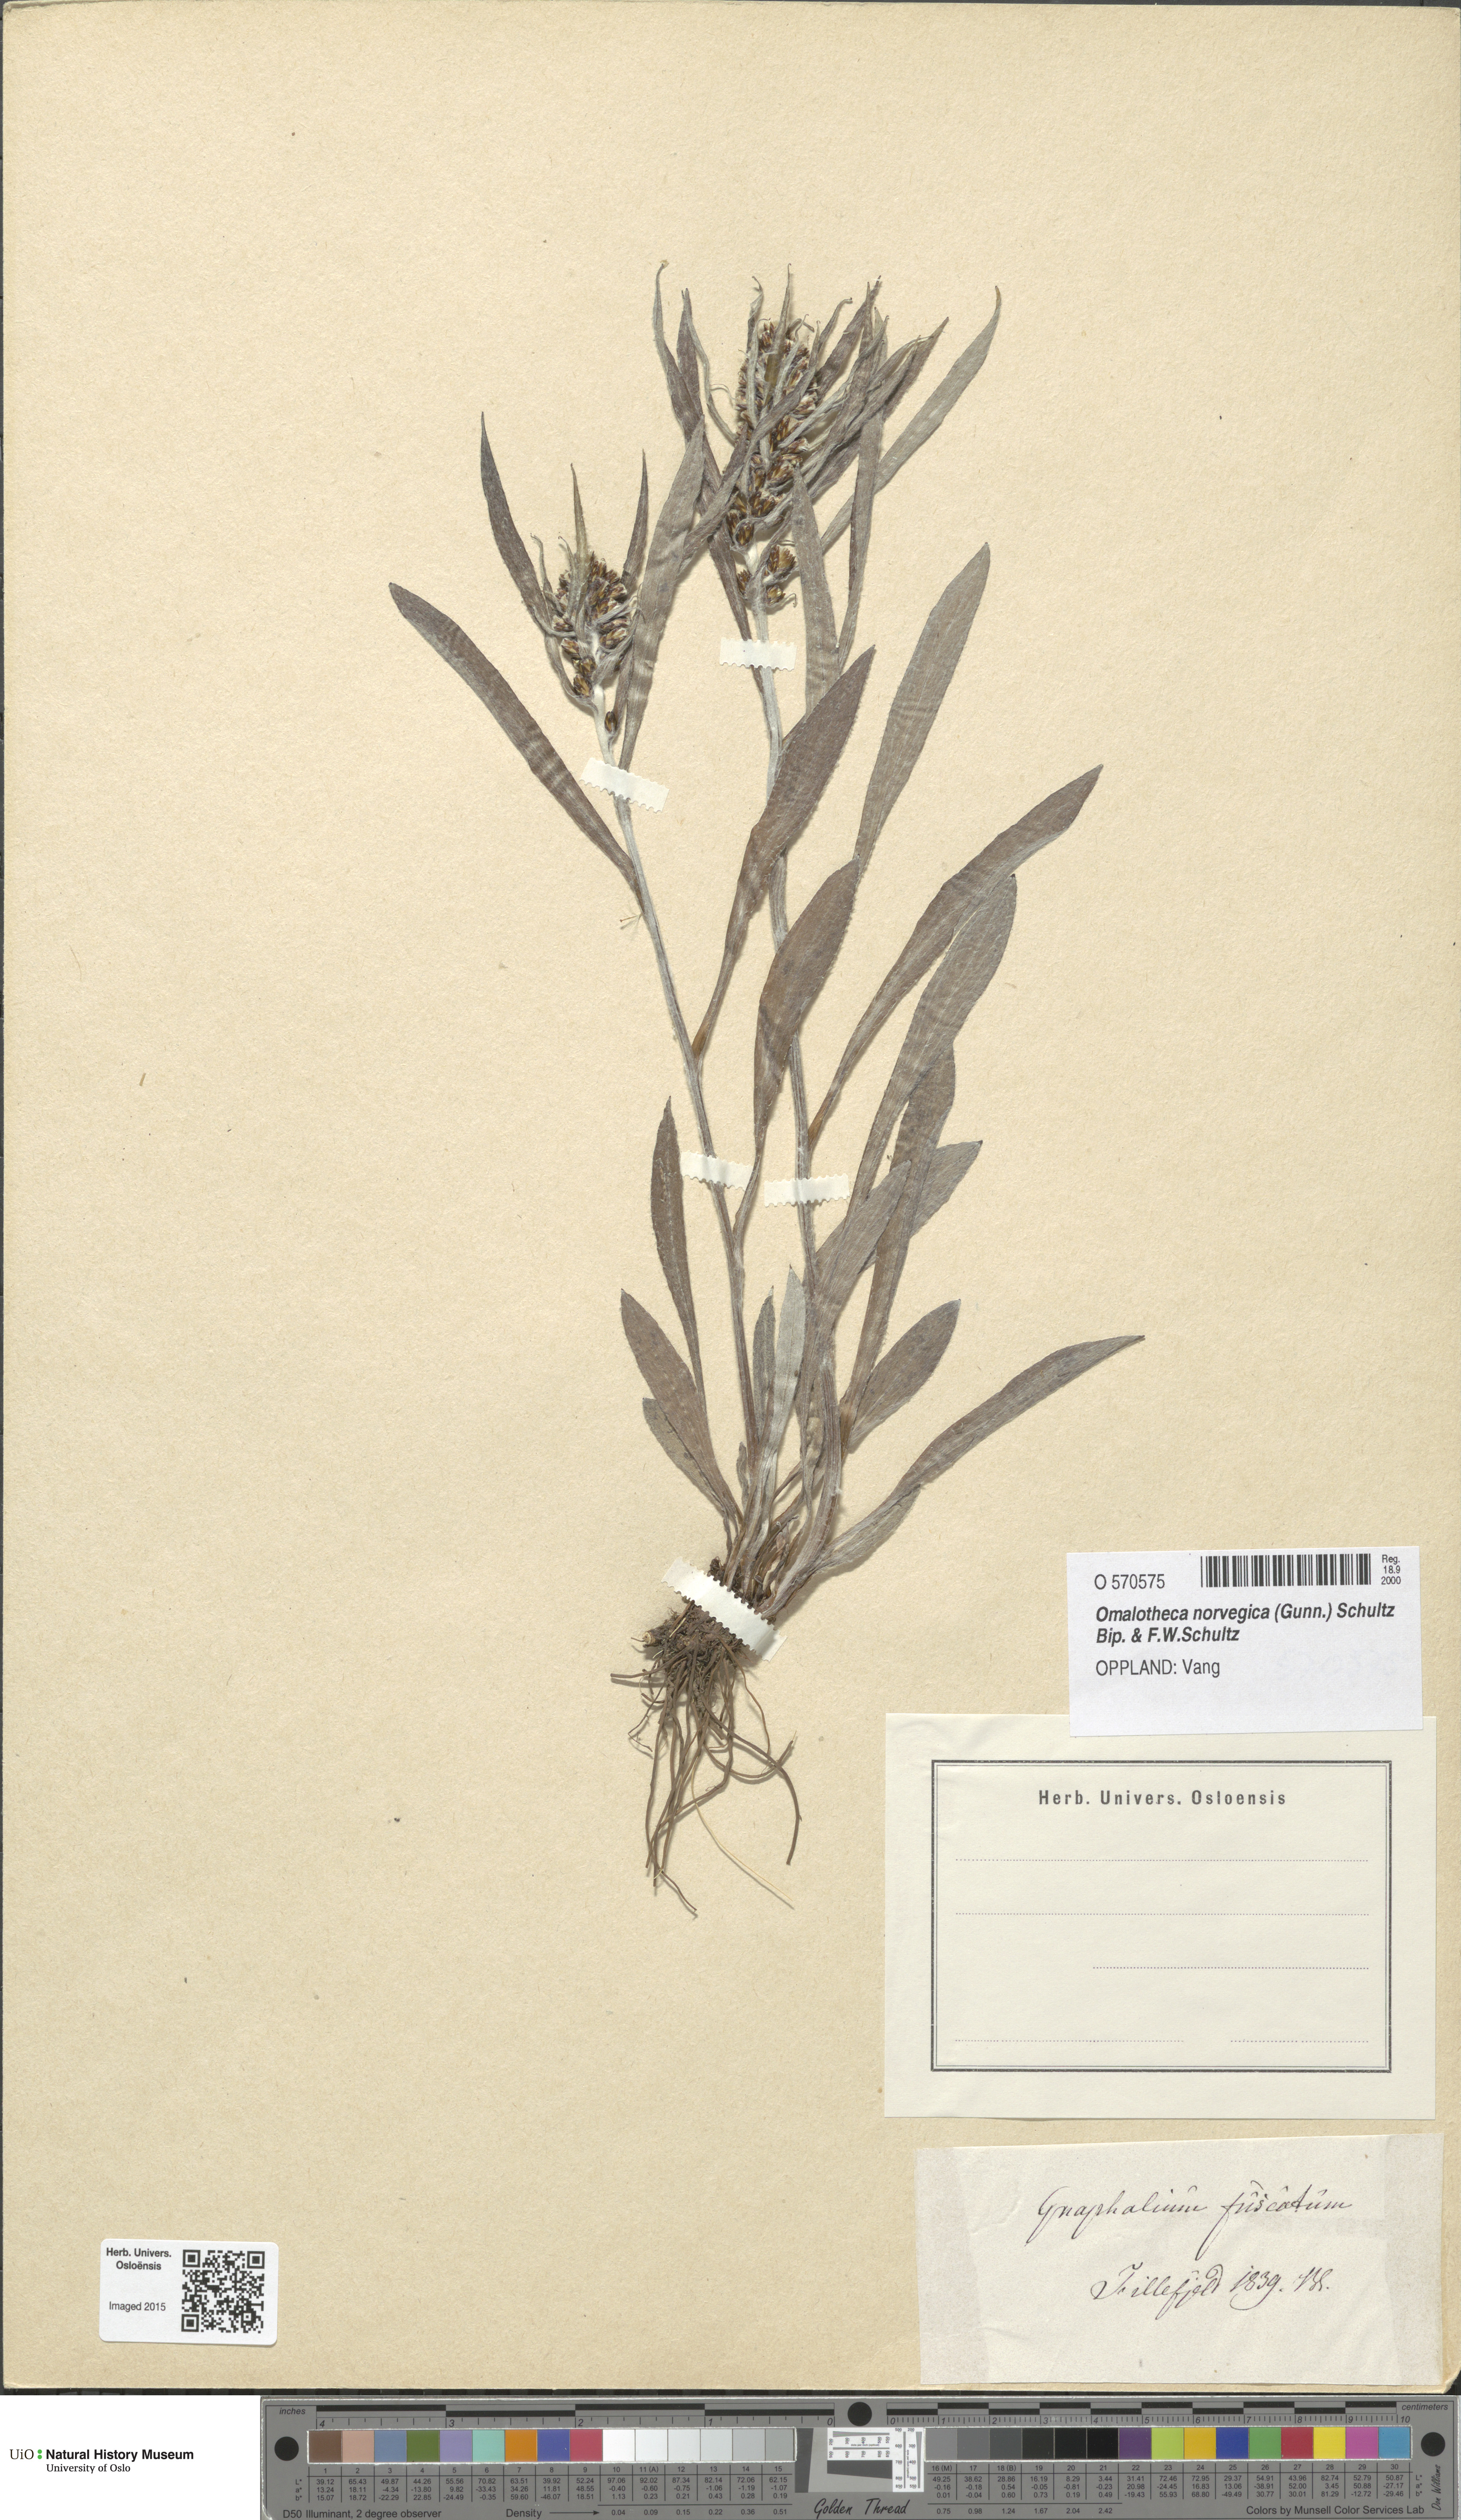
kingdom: Plantae
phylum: Tracheophyta
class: Magnoliopsida
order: Asterales
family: Asteraceae
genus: Omalotheca
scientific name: Omalotheca norvegica
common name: Norwegian arctic-cudweed
